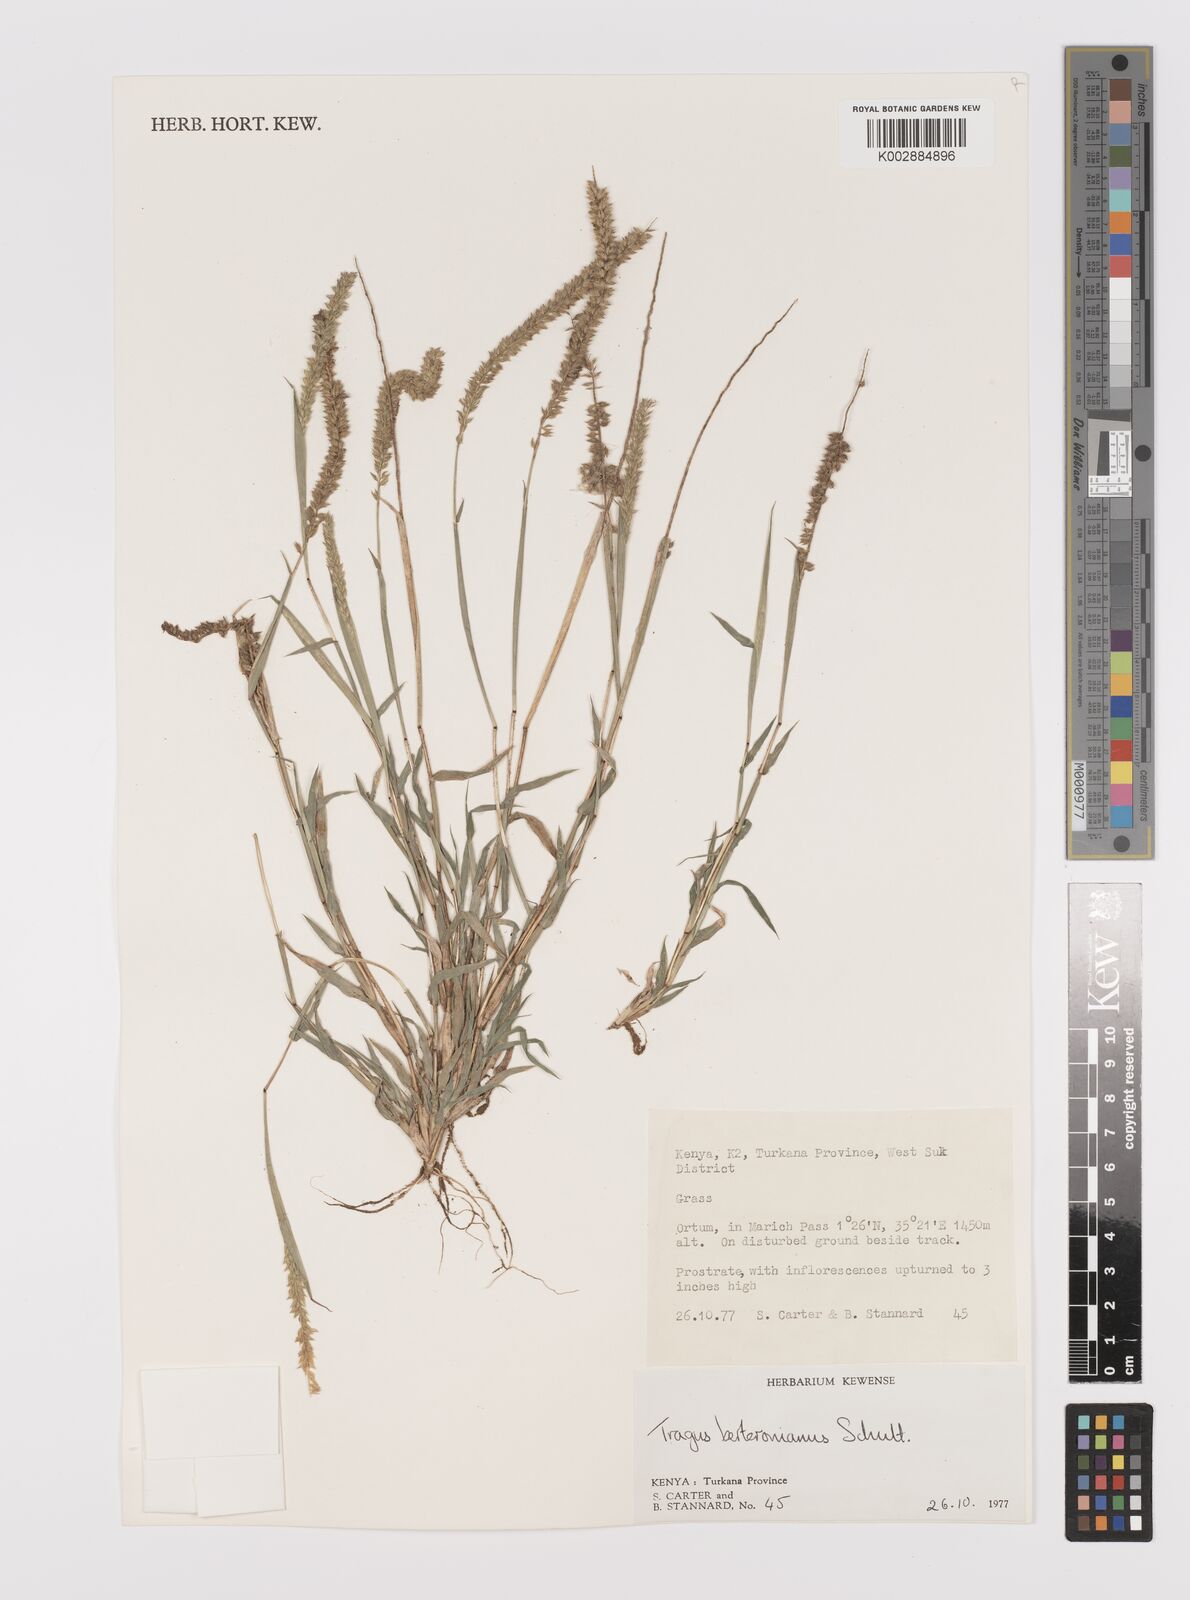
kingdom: Plantae
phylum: Tracheophyta
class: Liliopsida
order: Poales
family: Poaceae
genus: Tragus
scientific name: Tragus berteronianus
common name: African bur-grass
